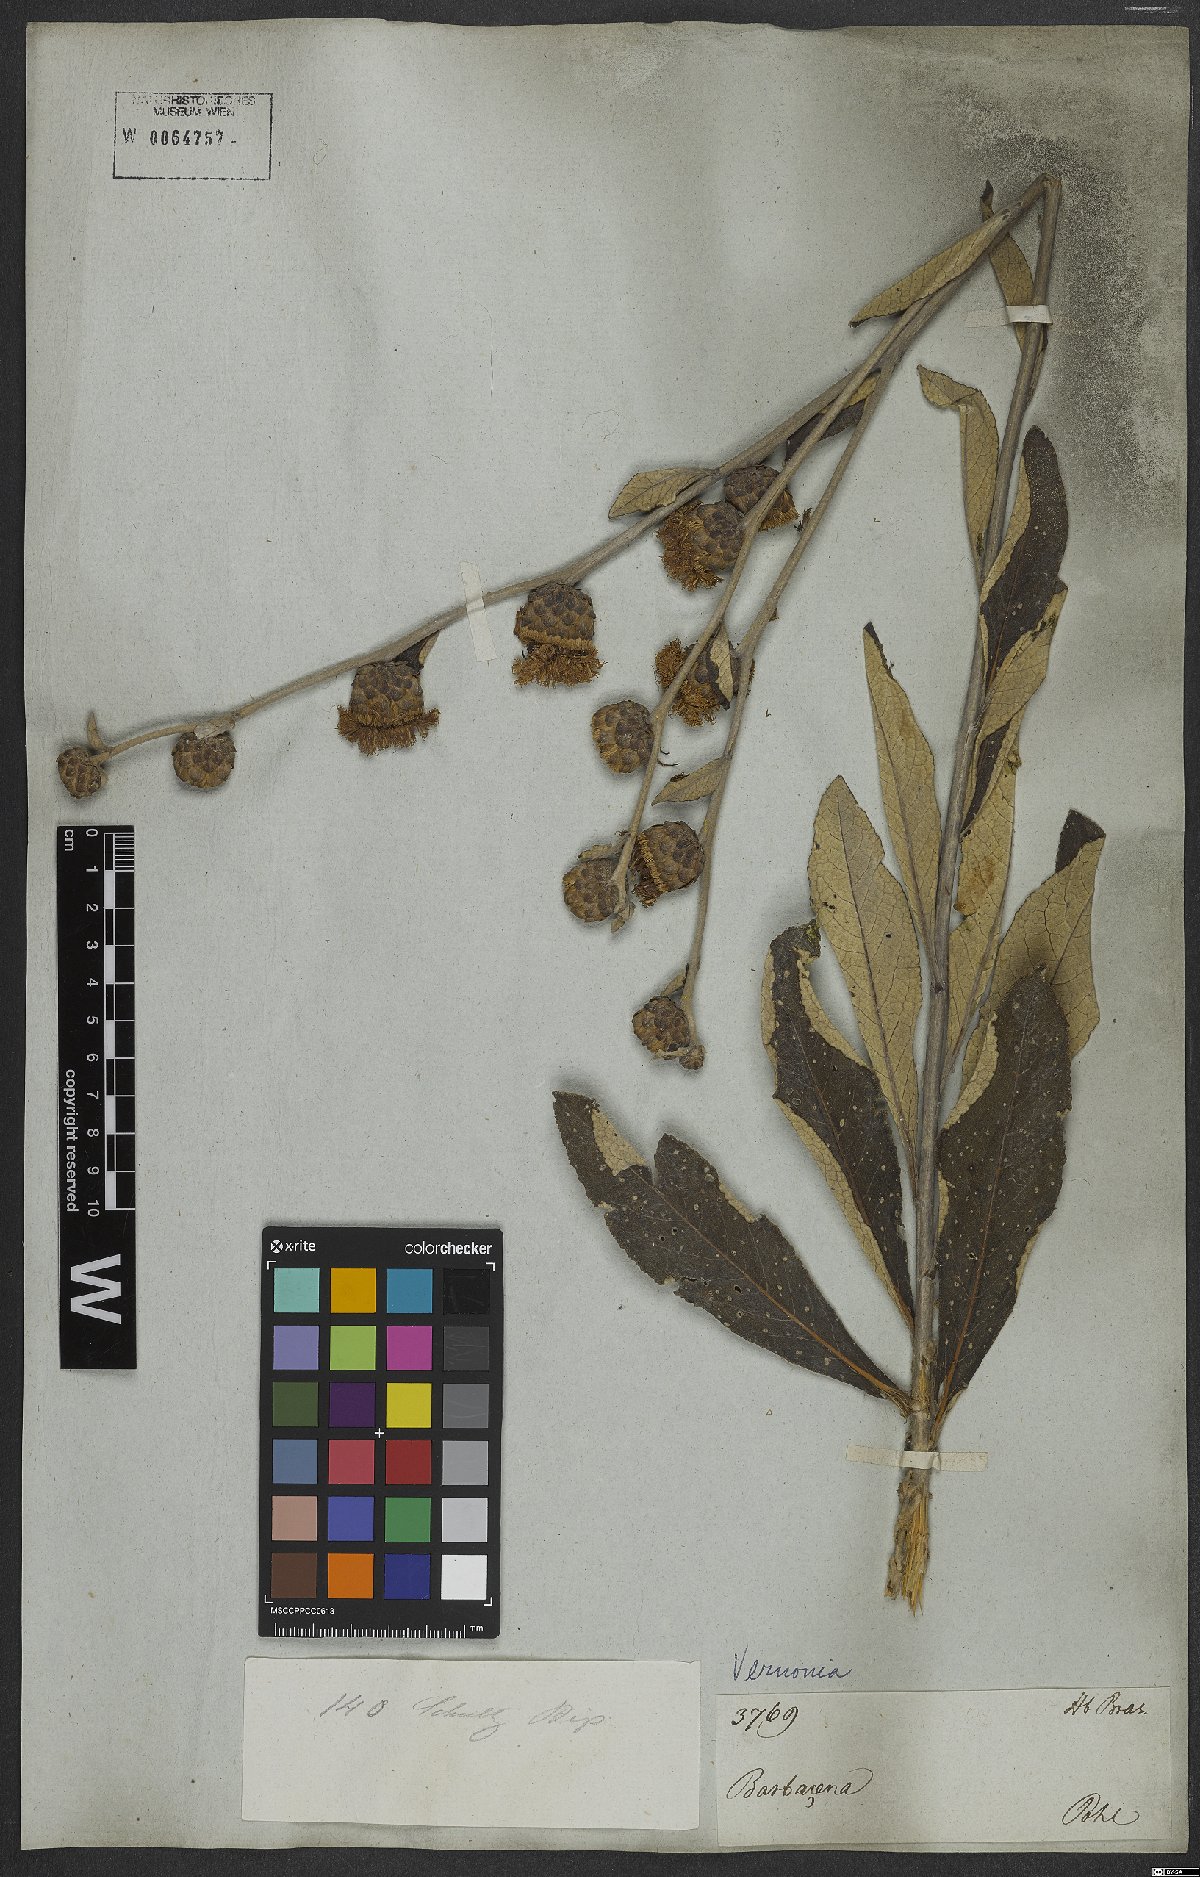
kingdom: Plantae
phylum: Tracheophyta
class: Magnoliopsida
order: Asterales
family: Asteraceae
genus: Vernonia
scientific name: Vernonia
